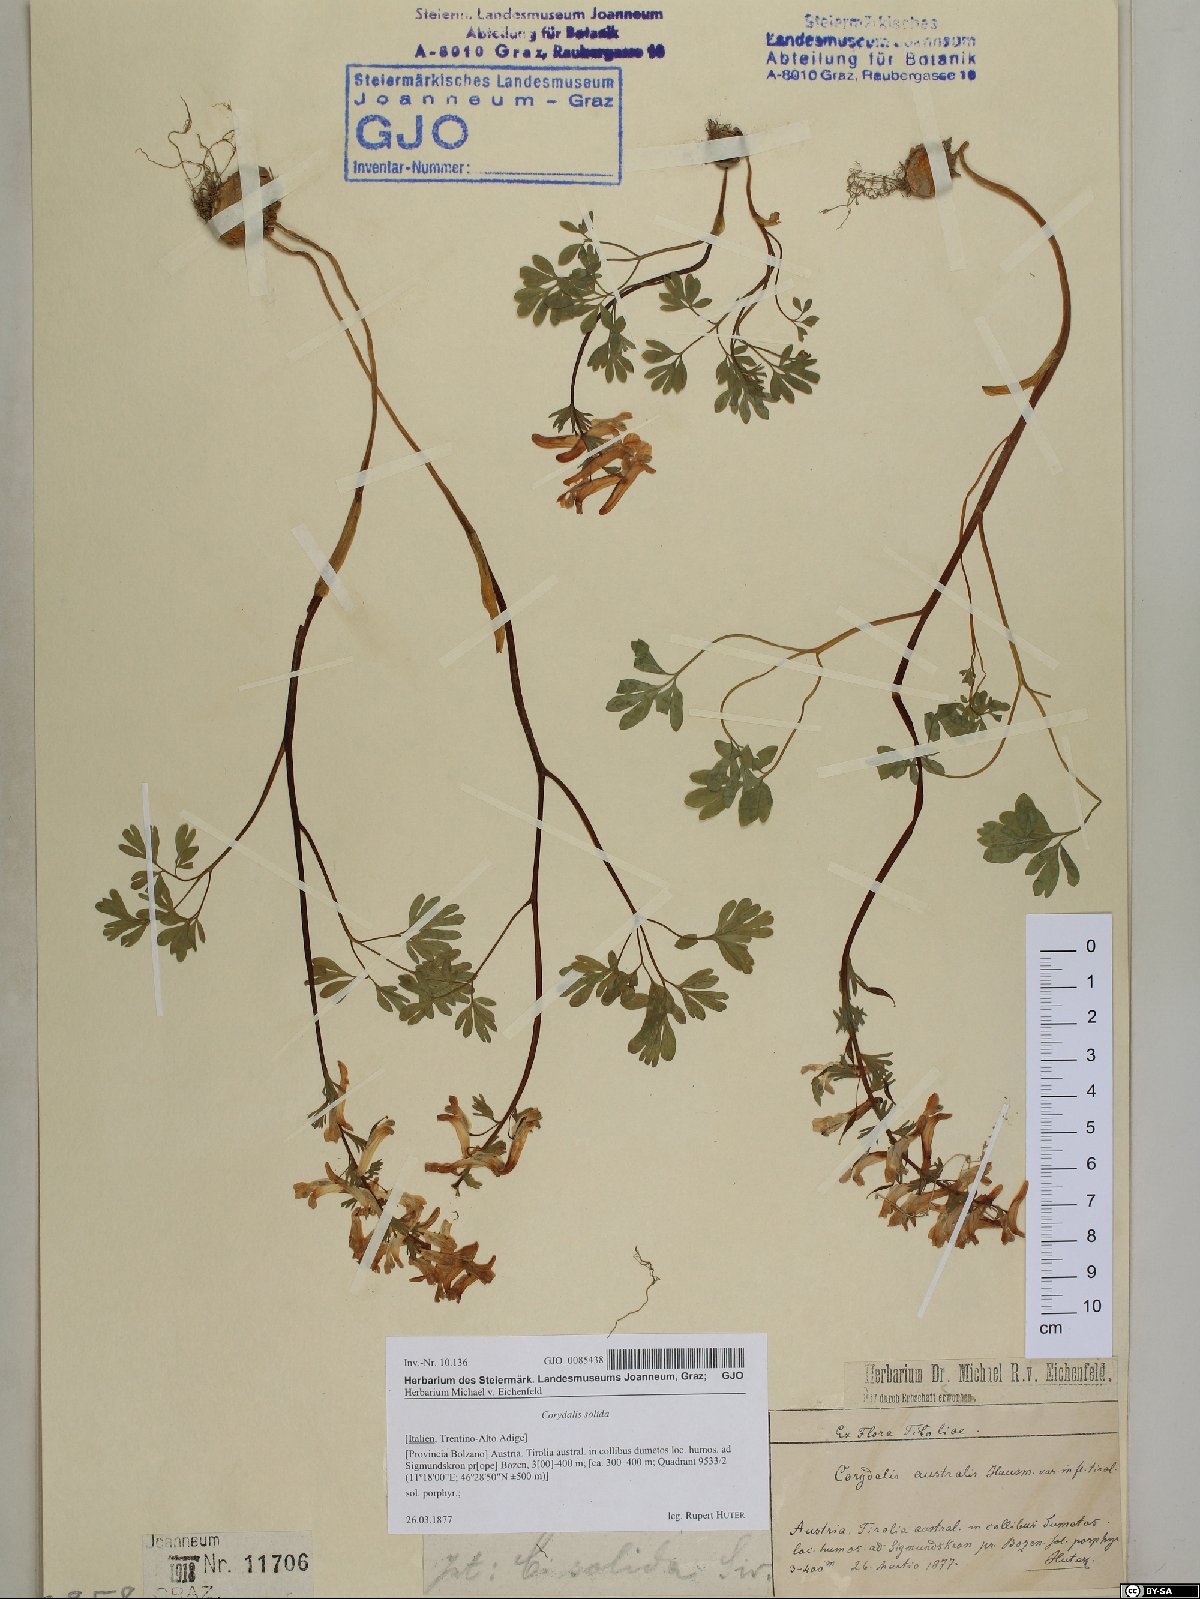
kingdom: Plantae
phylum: Tracheophyta
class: Magnoliopsida
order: Ranunculales
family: Papaveraceae
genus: Corydalis
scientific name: Corydalis solida
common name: Bird-in-a-bush
